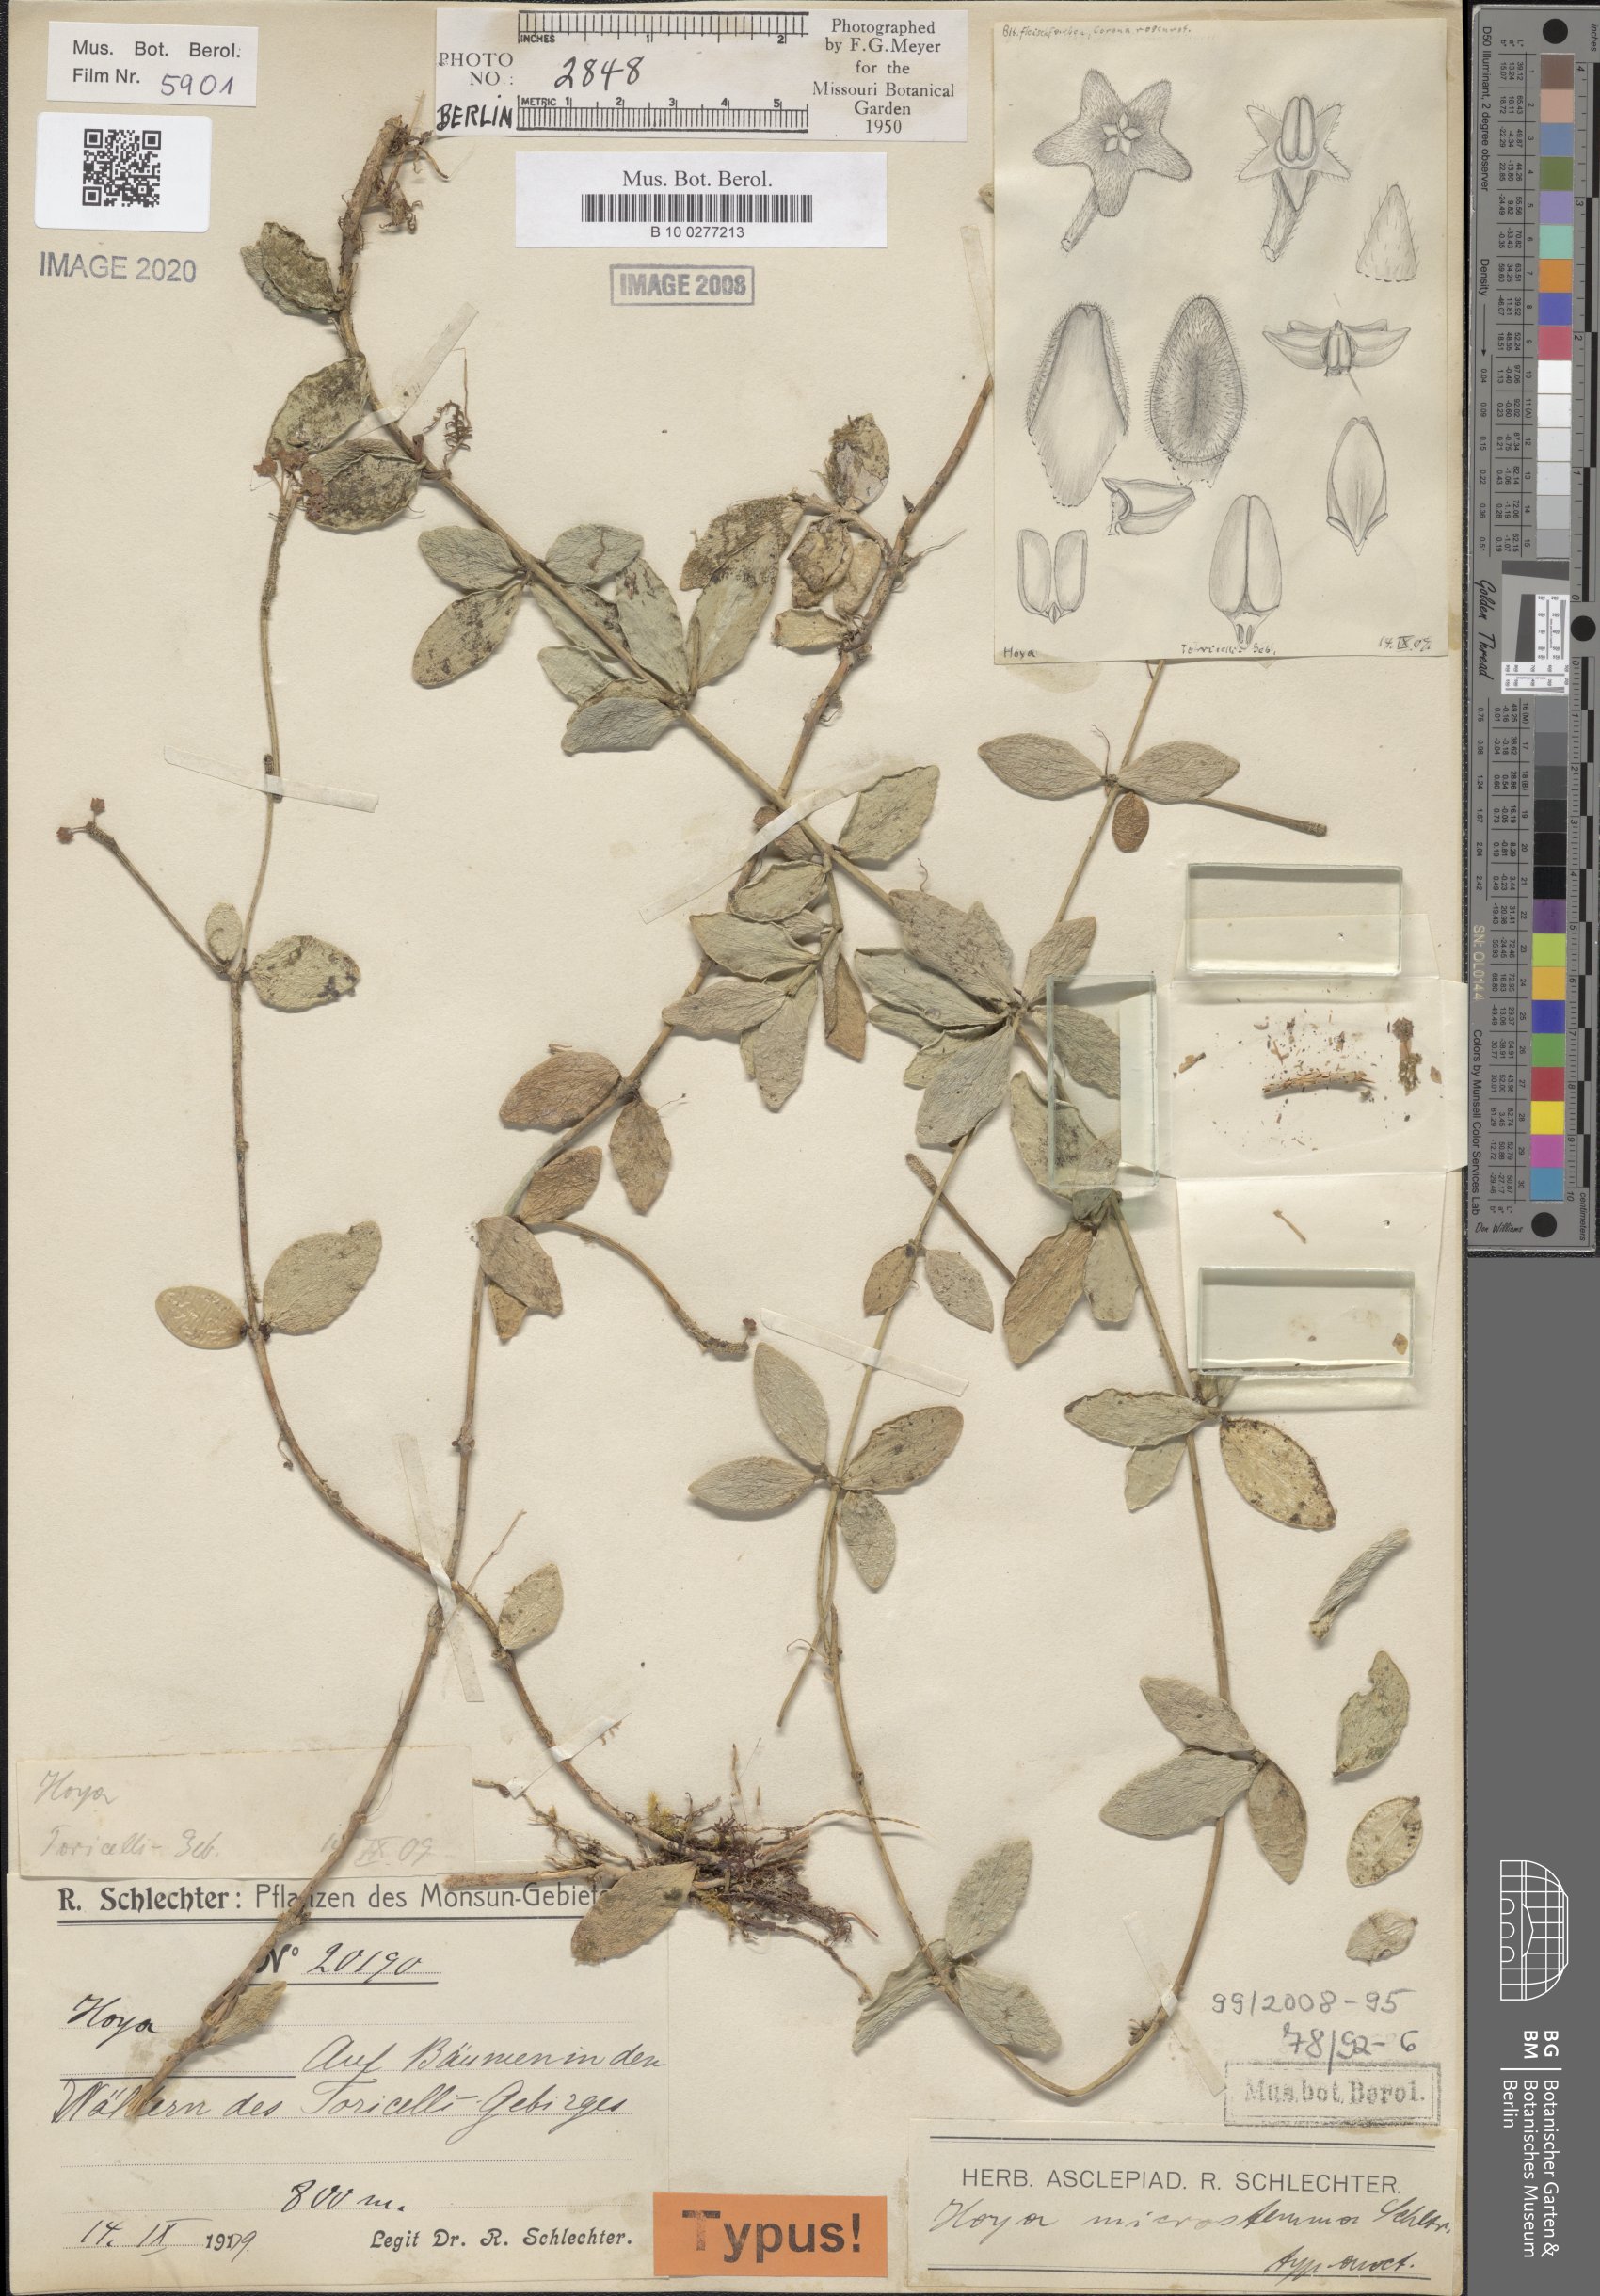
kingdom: Plantae
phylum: Tracheophyta
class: Magnoliopsida
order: Gentianales
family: Apocynaceae
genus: Hoya
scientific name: Hoya microstemma
